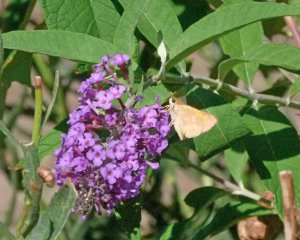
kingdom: Animalia
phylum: Arthropoda
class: Insecta
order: Lepidoptera
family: Hesperiidae
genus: Ochlodes
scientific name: Ochlodes sylvanoides
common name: Woodland Skipper
